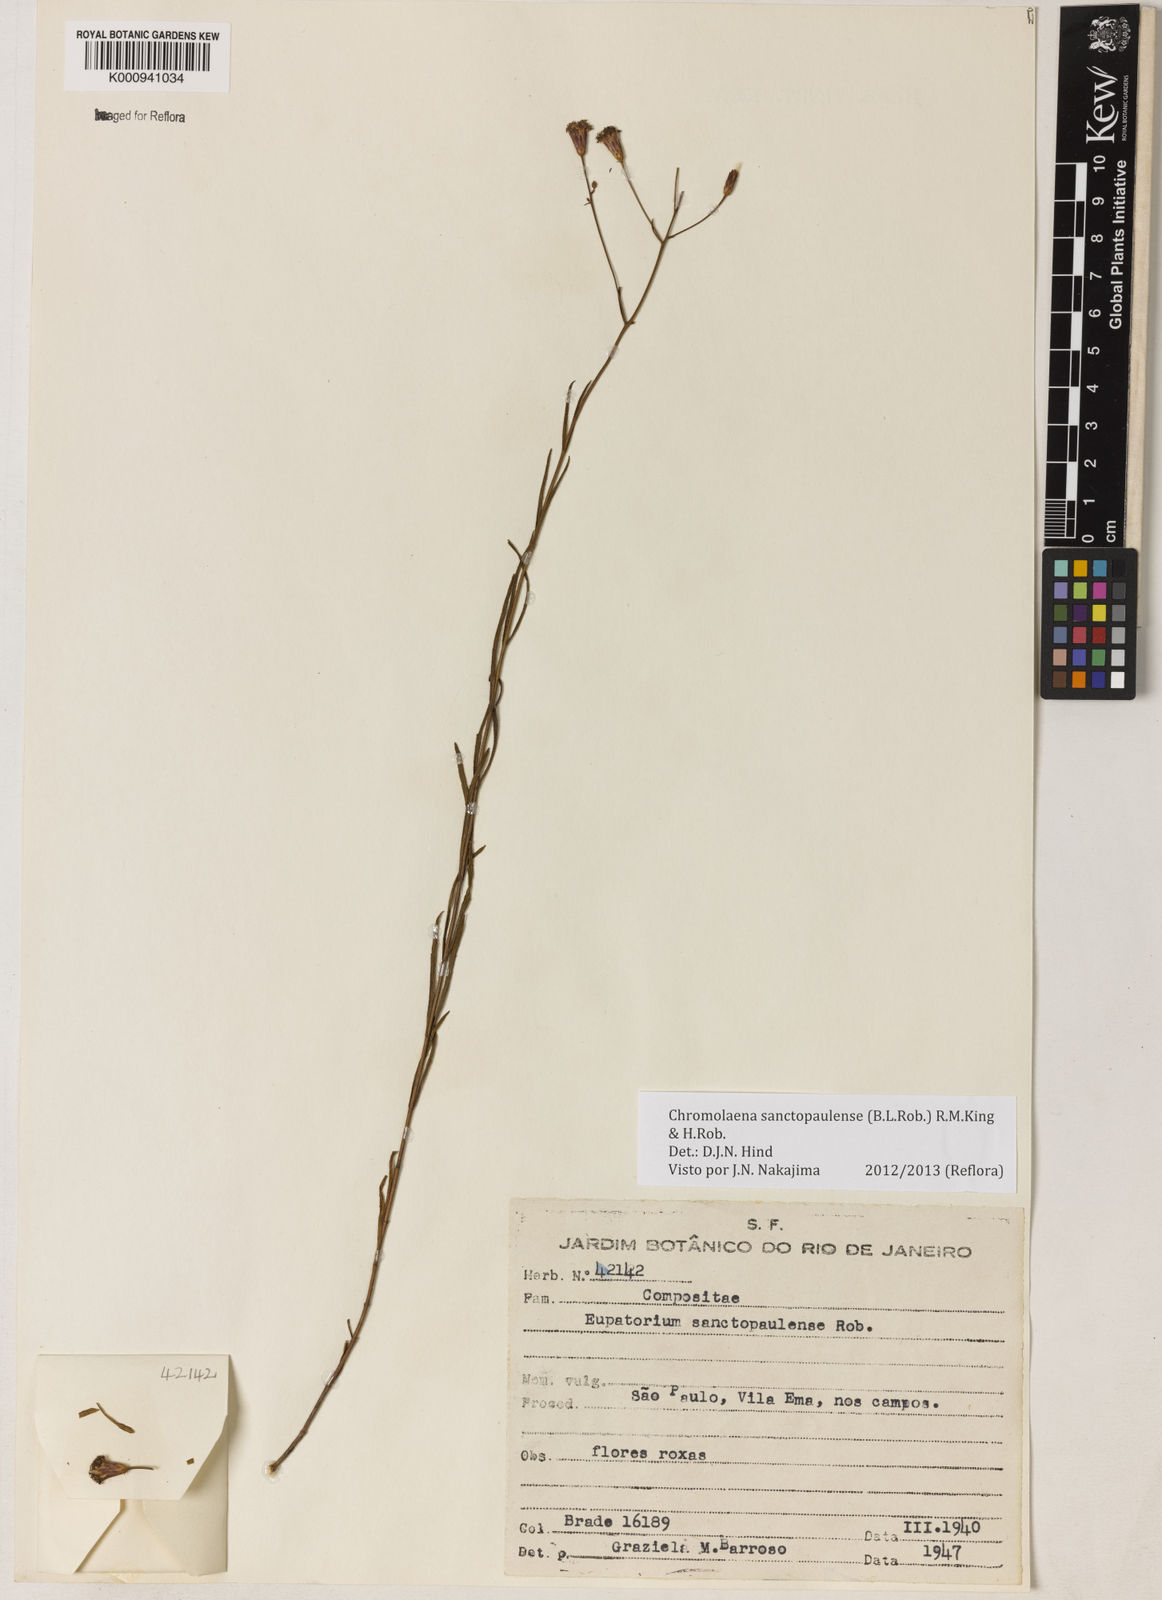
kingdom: Plantae
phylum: Tracheophyta
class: Magnoliopsida
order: Asterales
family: Asteraceae
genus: Chromolaena
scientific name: Chromolaena
